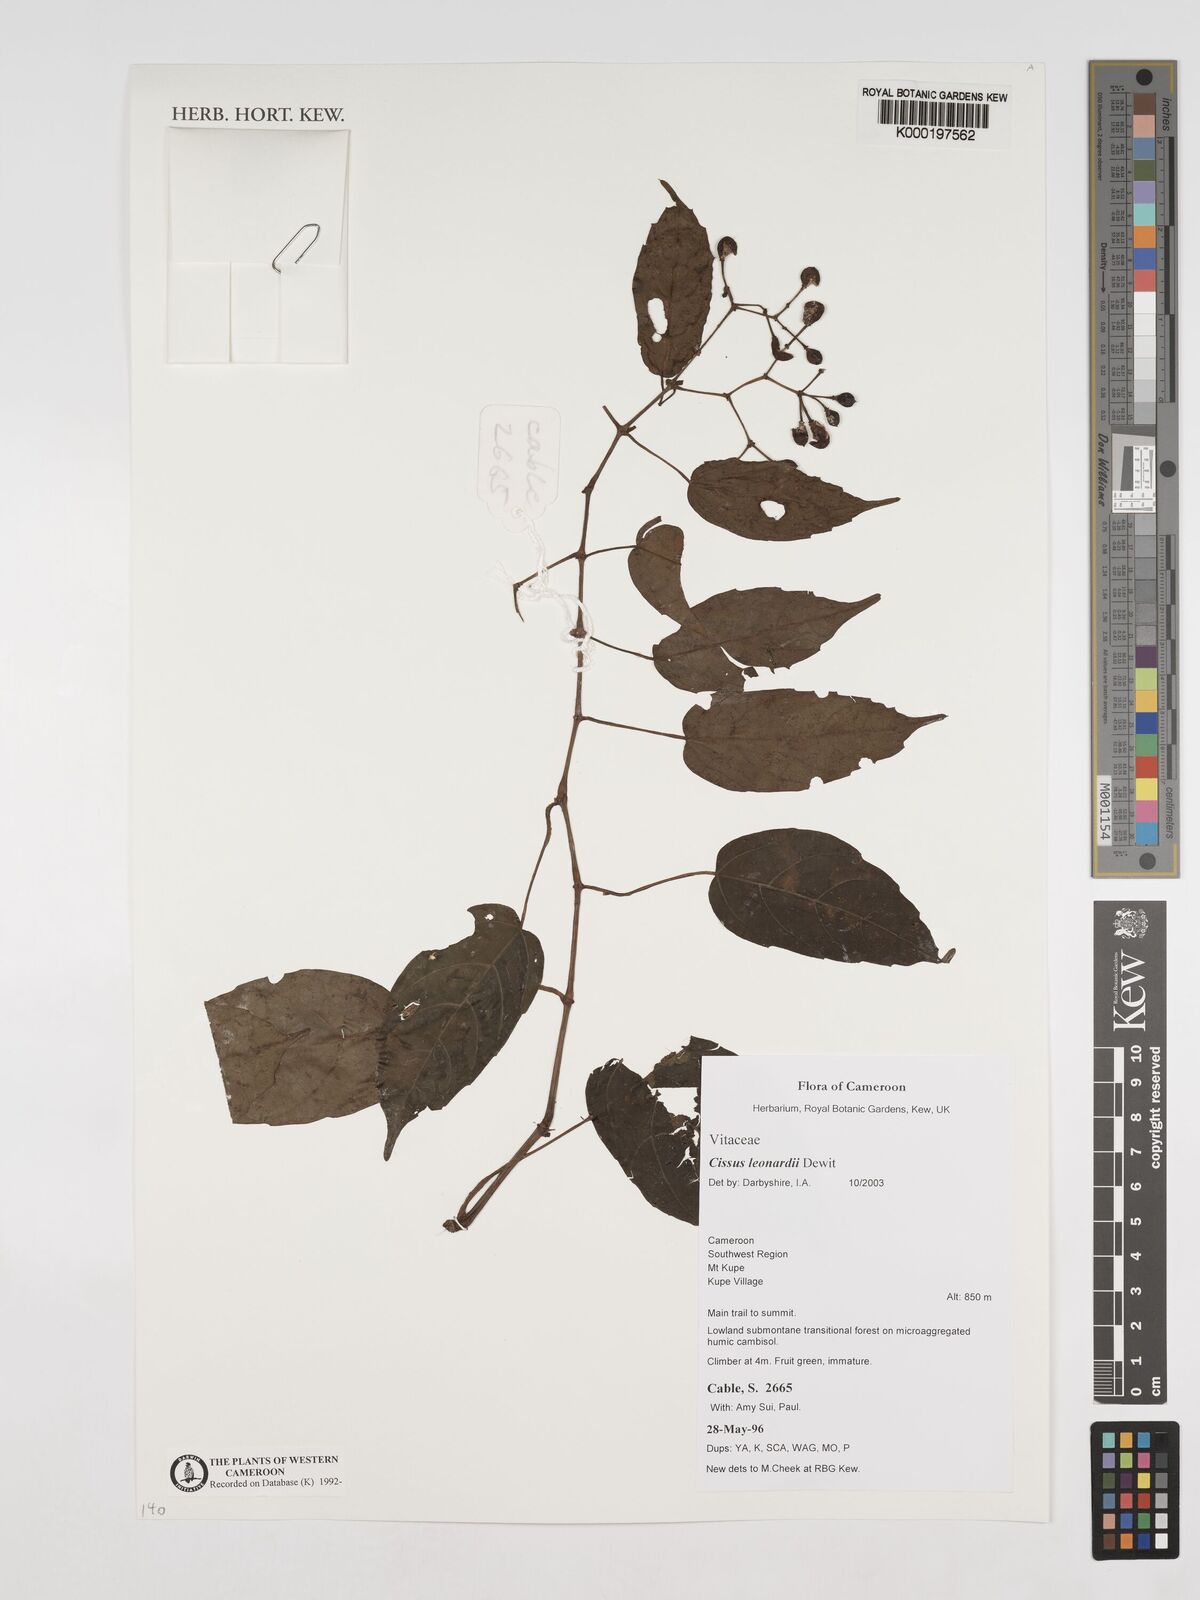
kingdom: Plantae
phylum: Tracheophyta
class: Magnoliopsida
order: Vitales
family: Vitaceae
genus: Cissus
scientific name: Cissus leonardii
